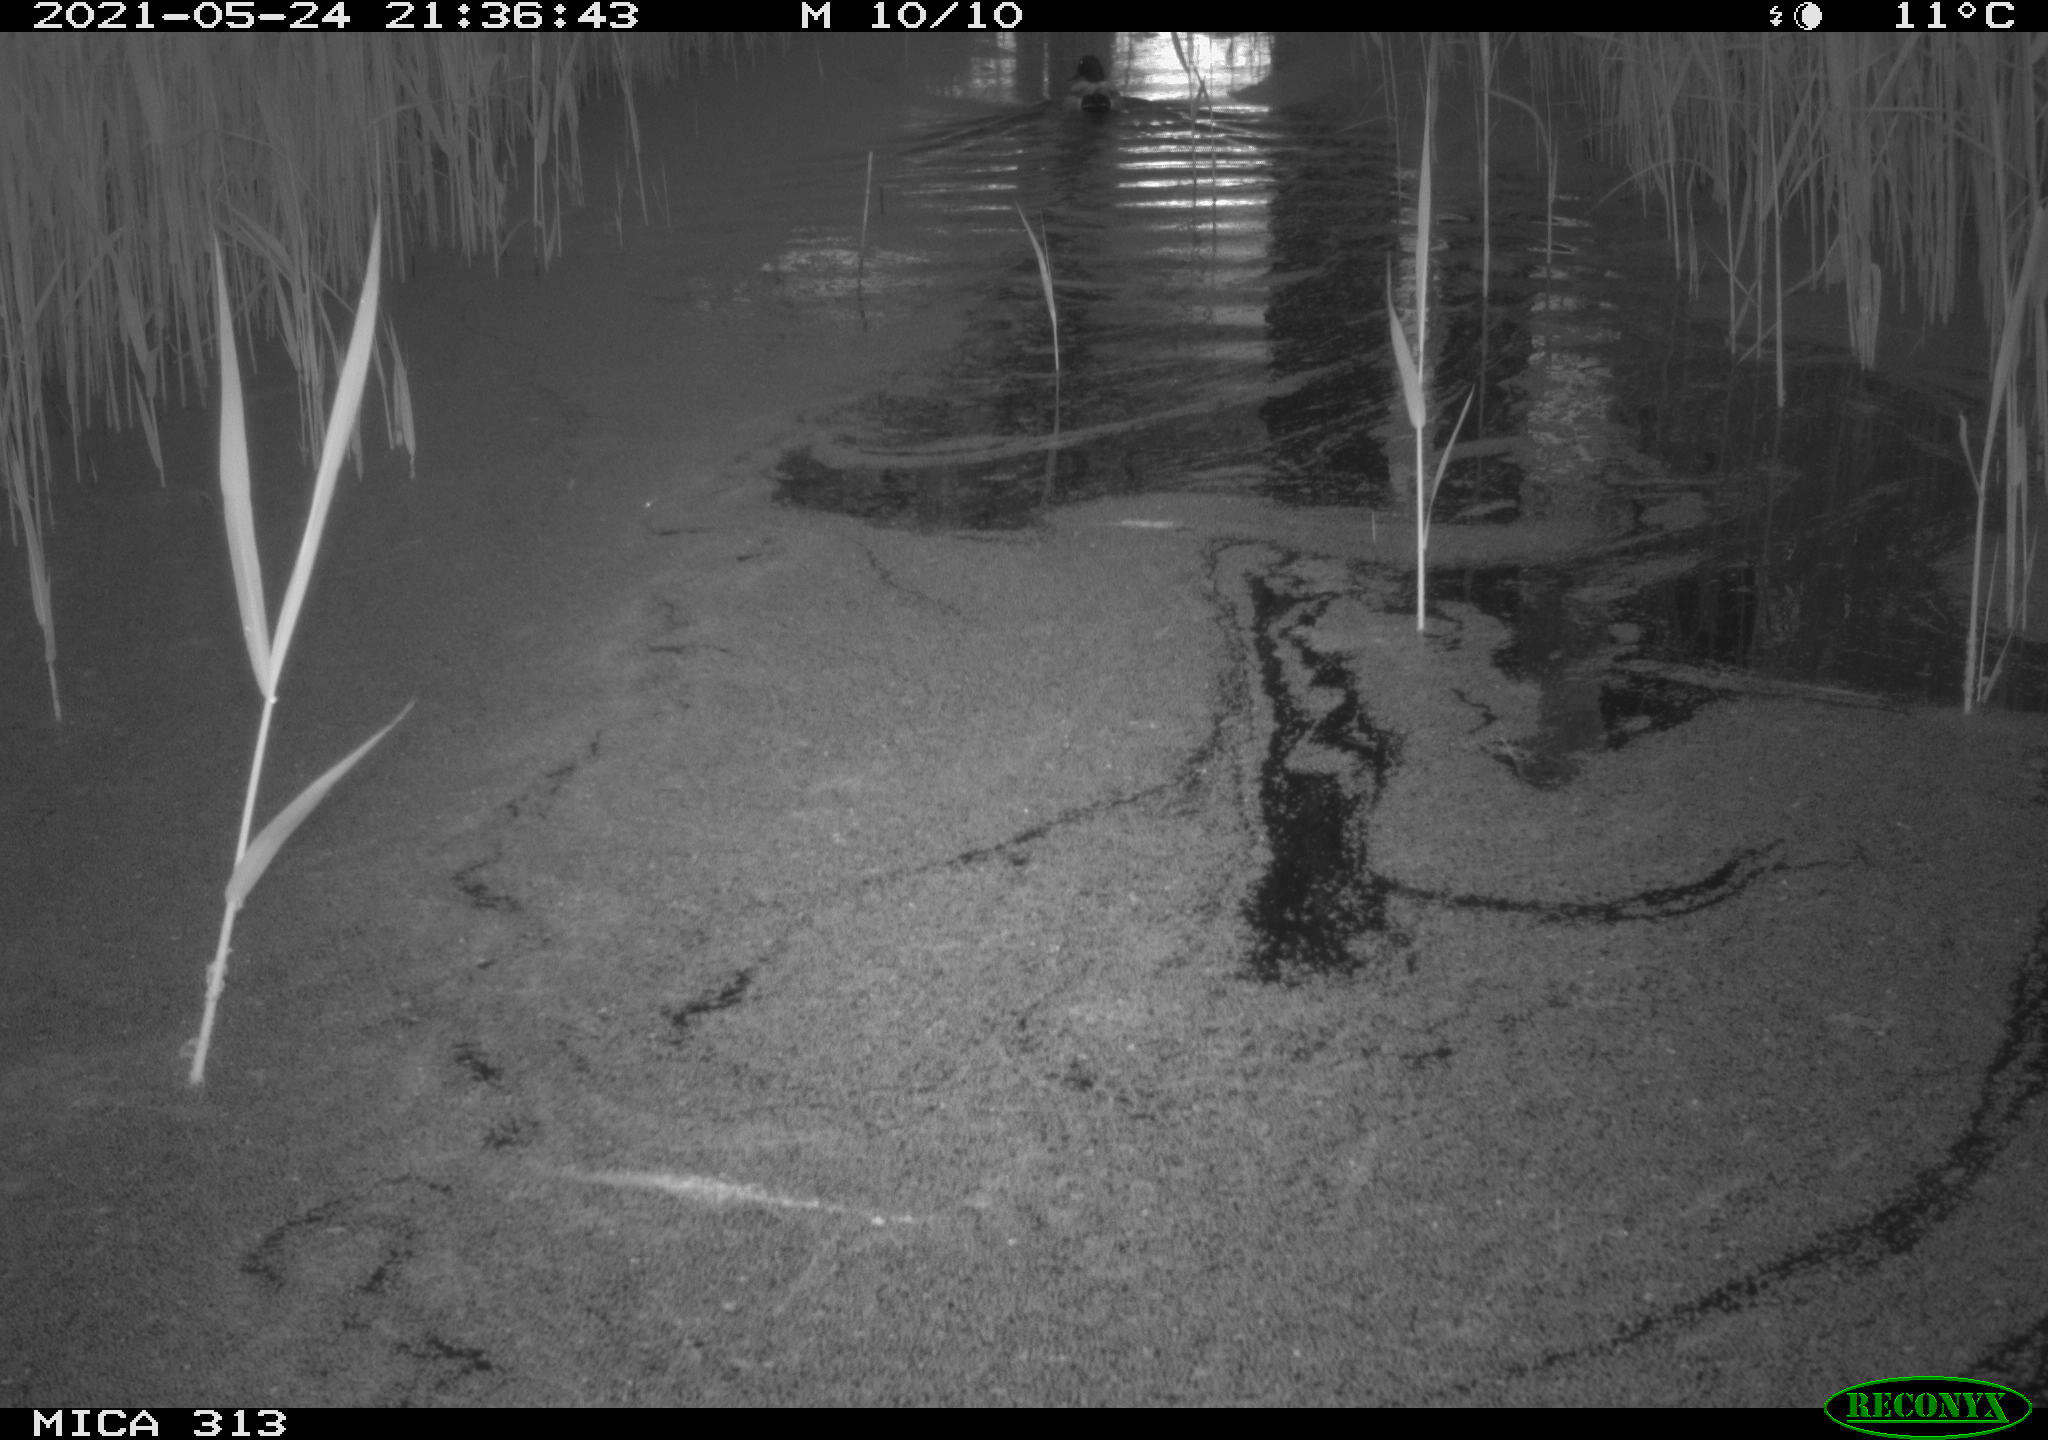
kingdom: Animalia
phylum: Chordata
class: Aves
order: Anseriformes
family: Anatidae
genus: Anas
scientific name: Anas platyrhynchos
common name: Mallard
